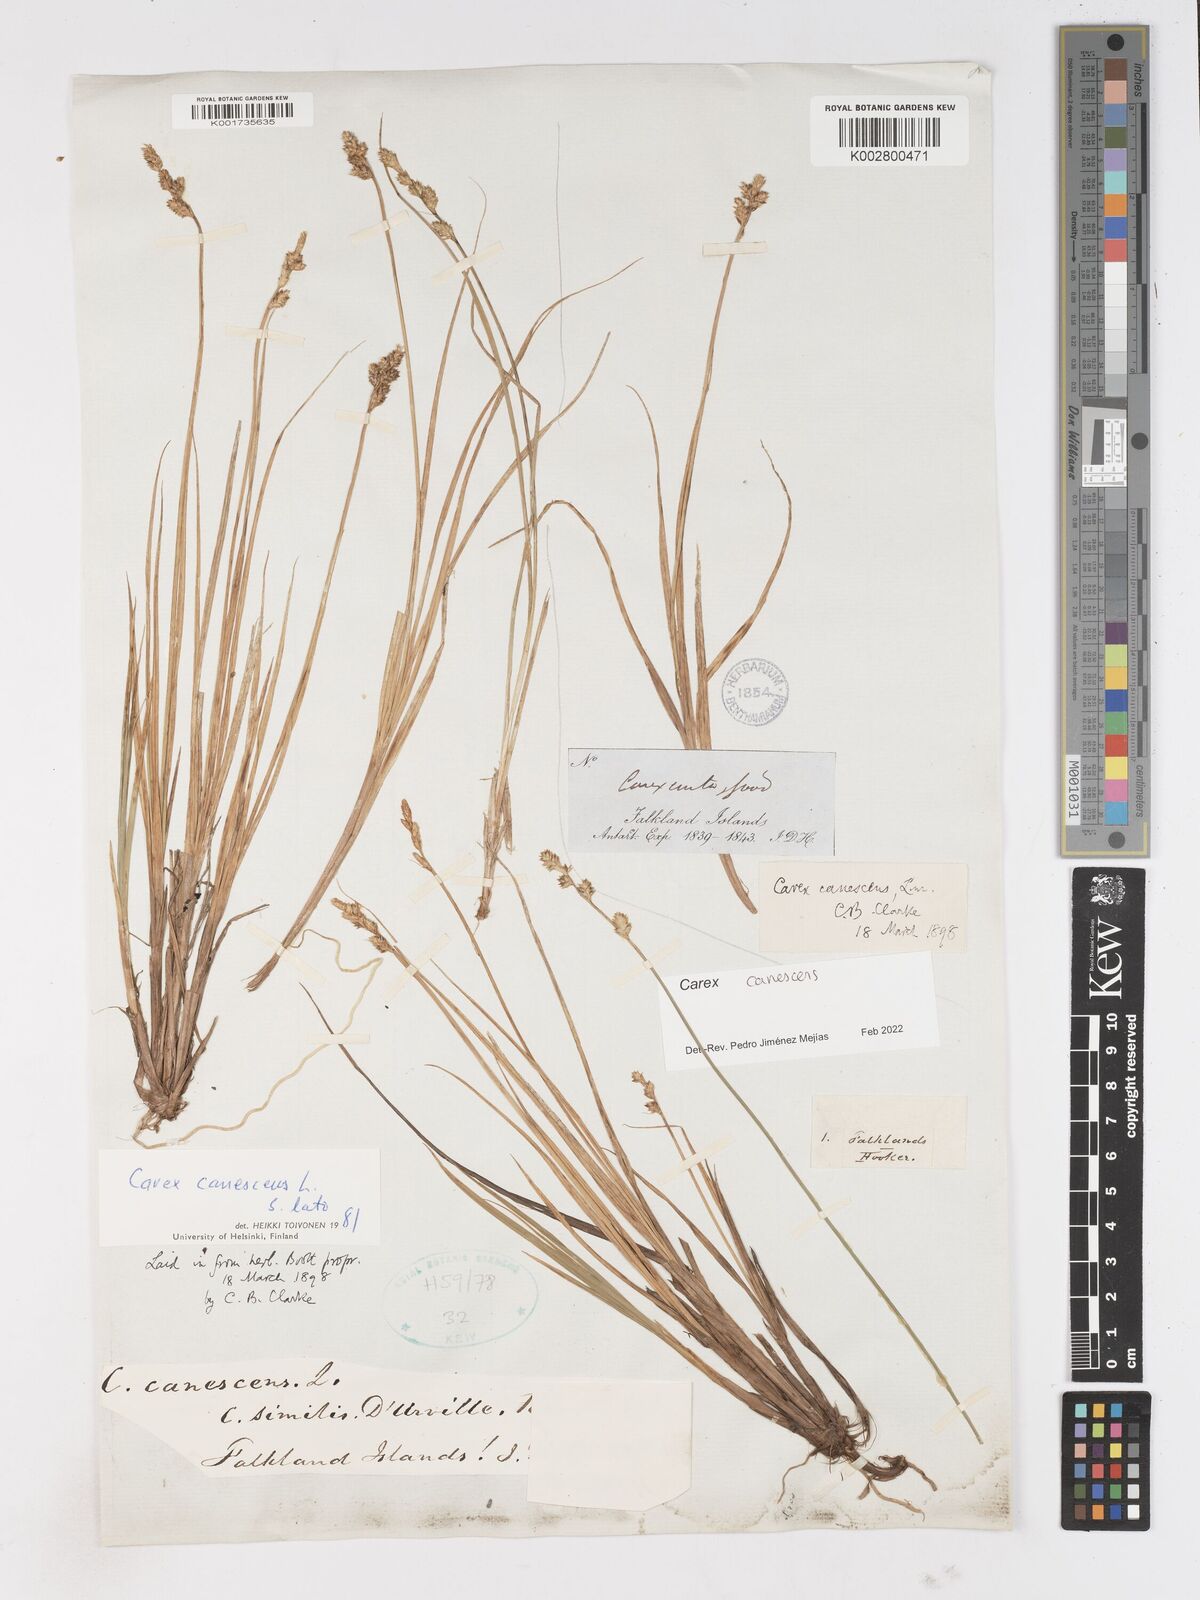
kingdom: Plantae
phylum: Tracheophyta
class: Liliopsida
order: Poales
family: Cyperaceae
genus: Carex
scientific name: Carex curta
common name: White sedge
